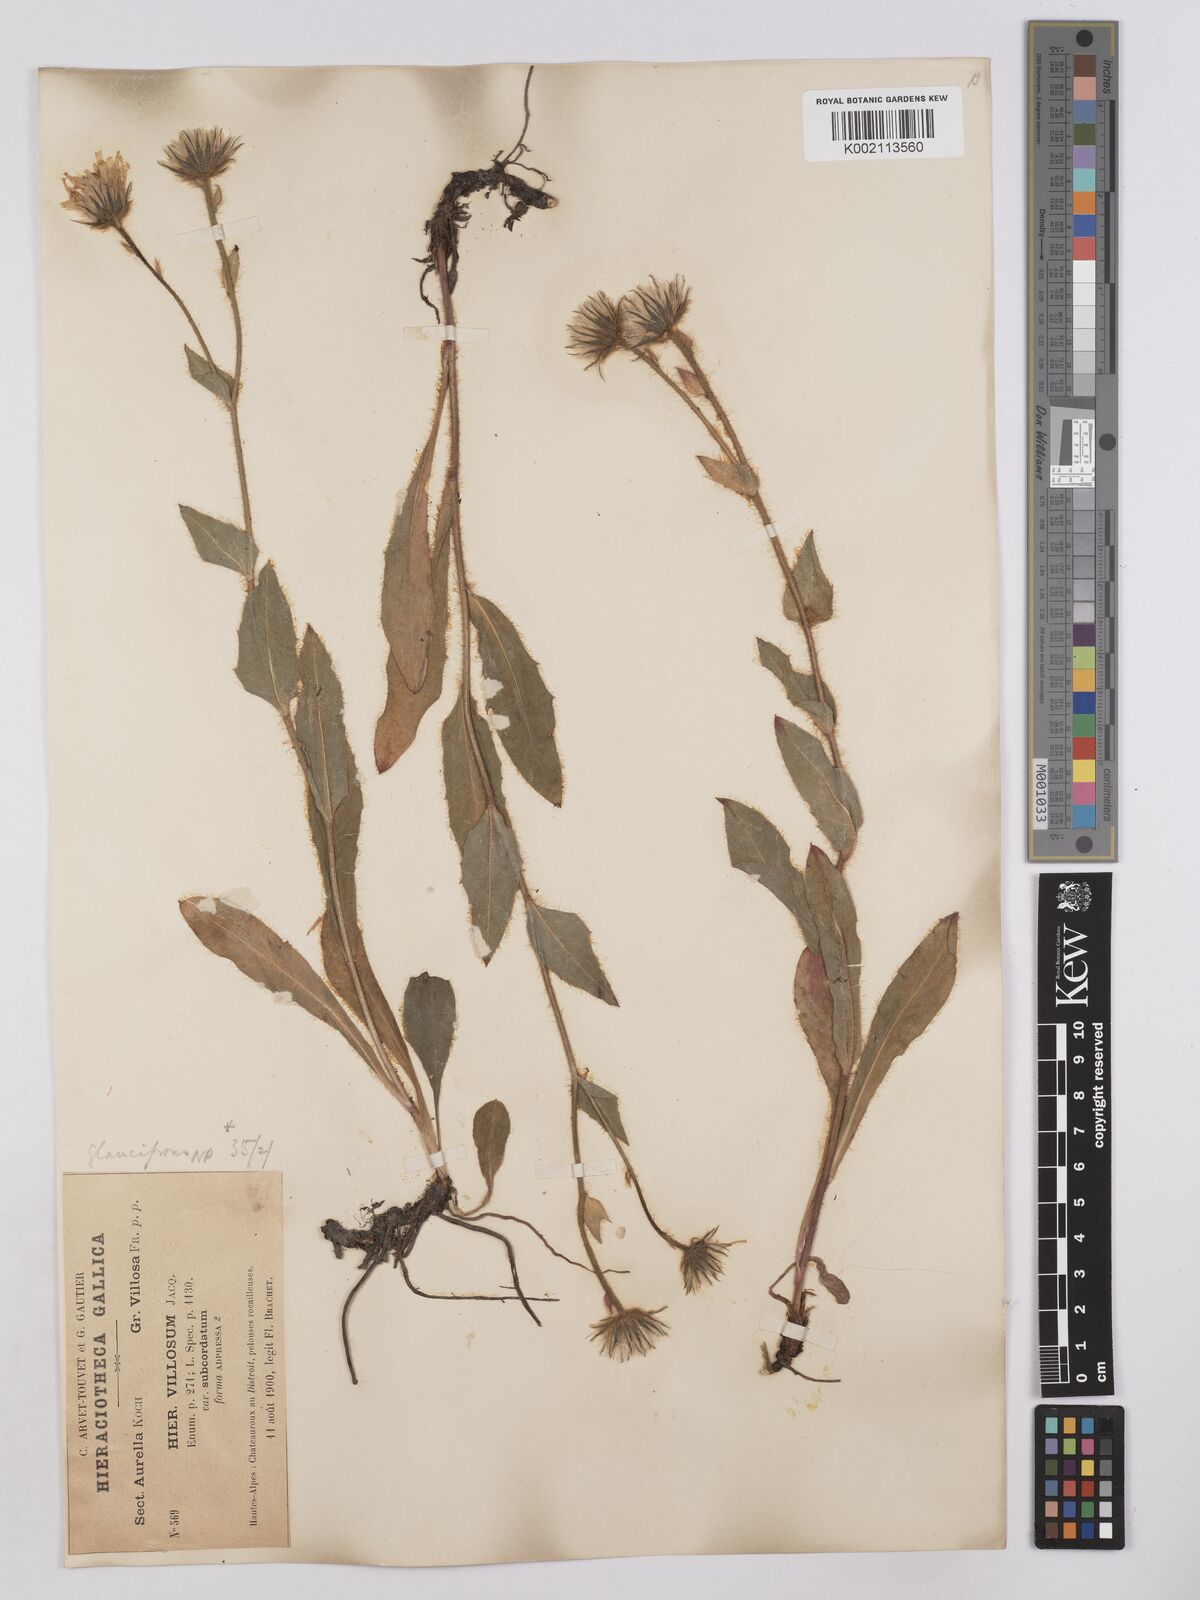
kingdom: Plantae
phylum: Tracheophyta
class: Magnoliopsida
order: Asterales
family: Asteraceae
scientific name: Asteraceae
